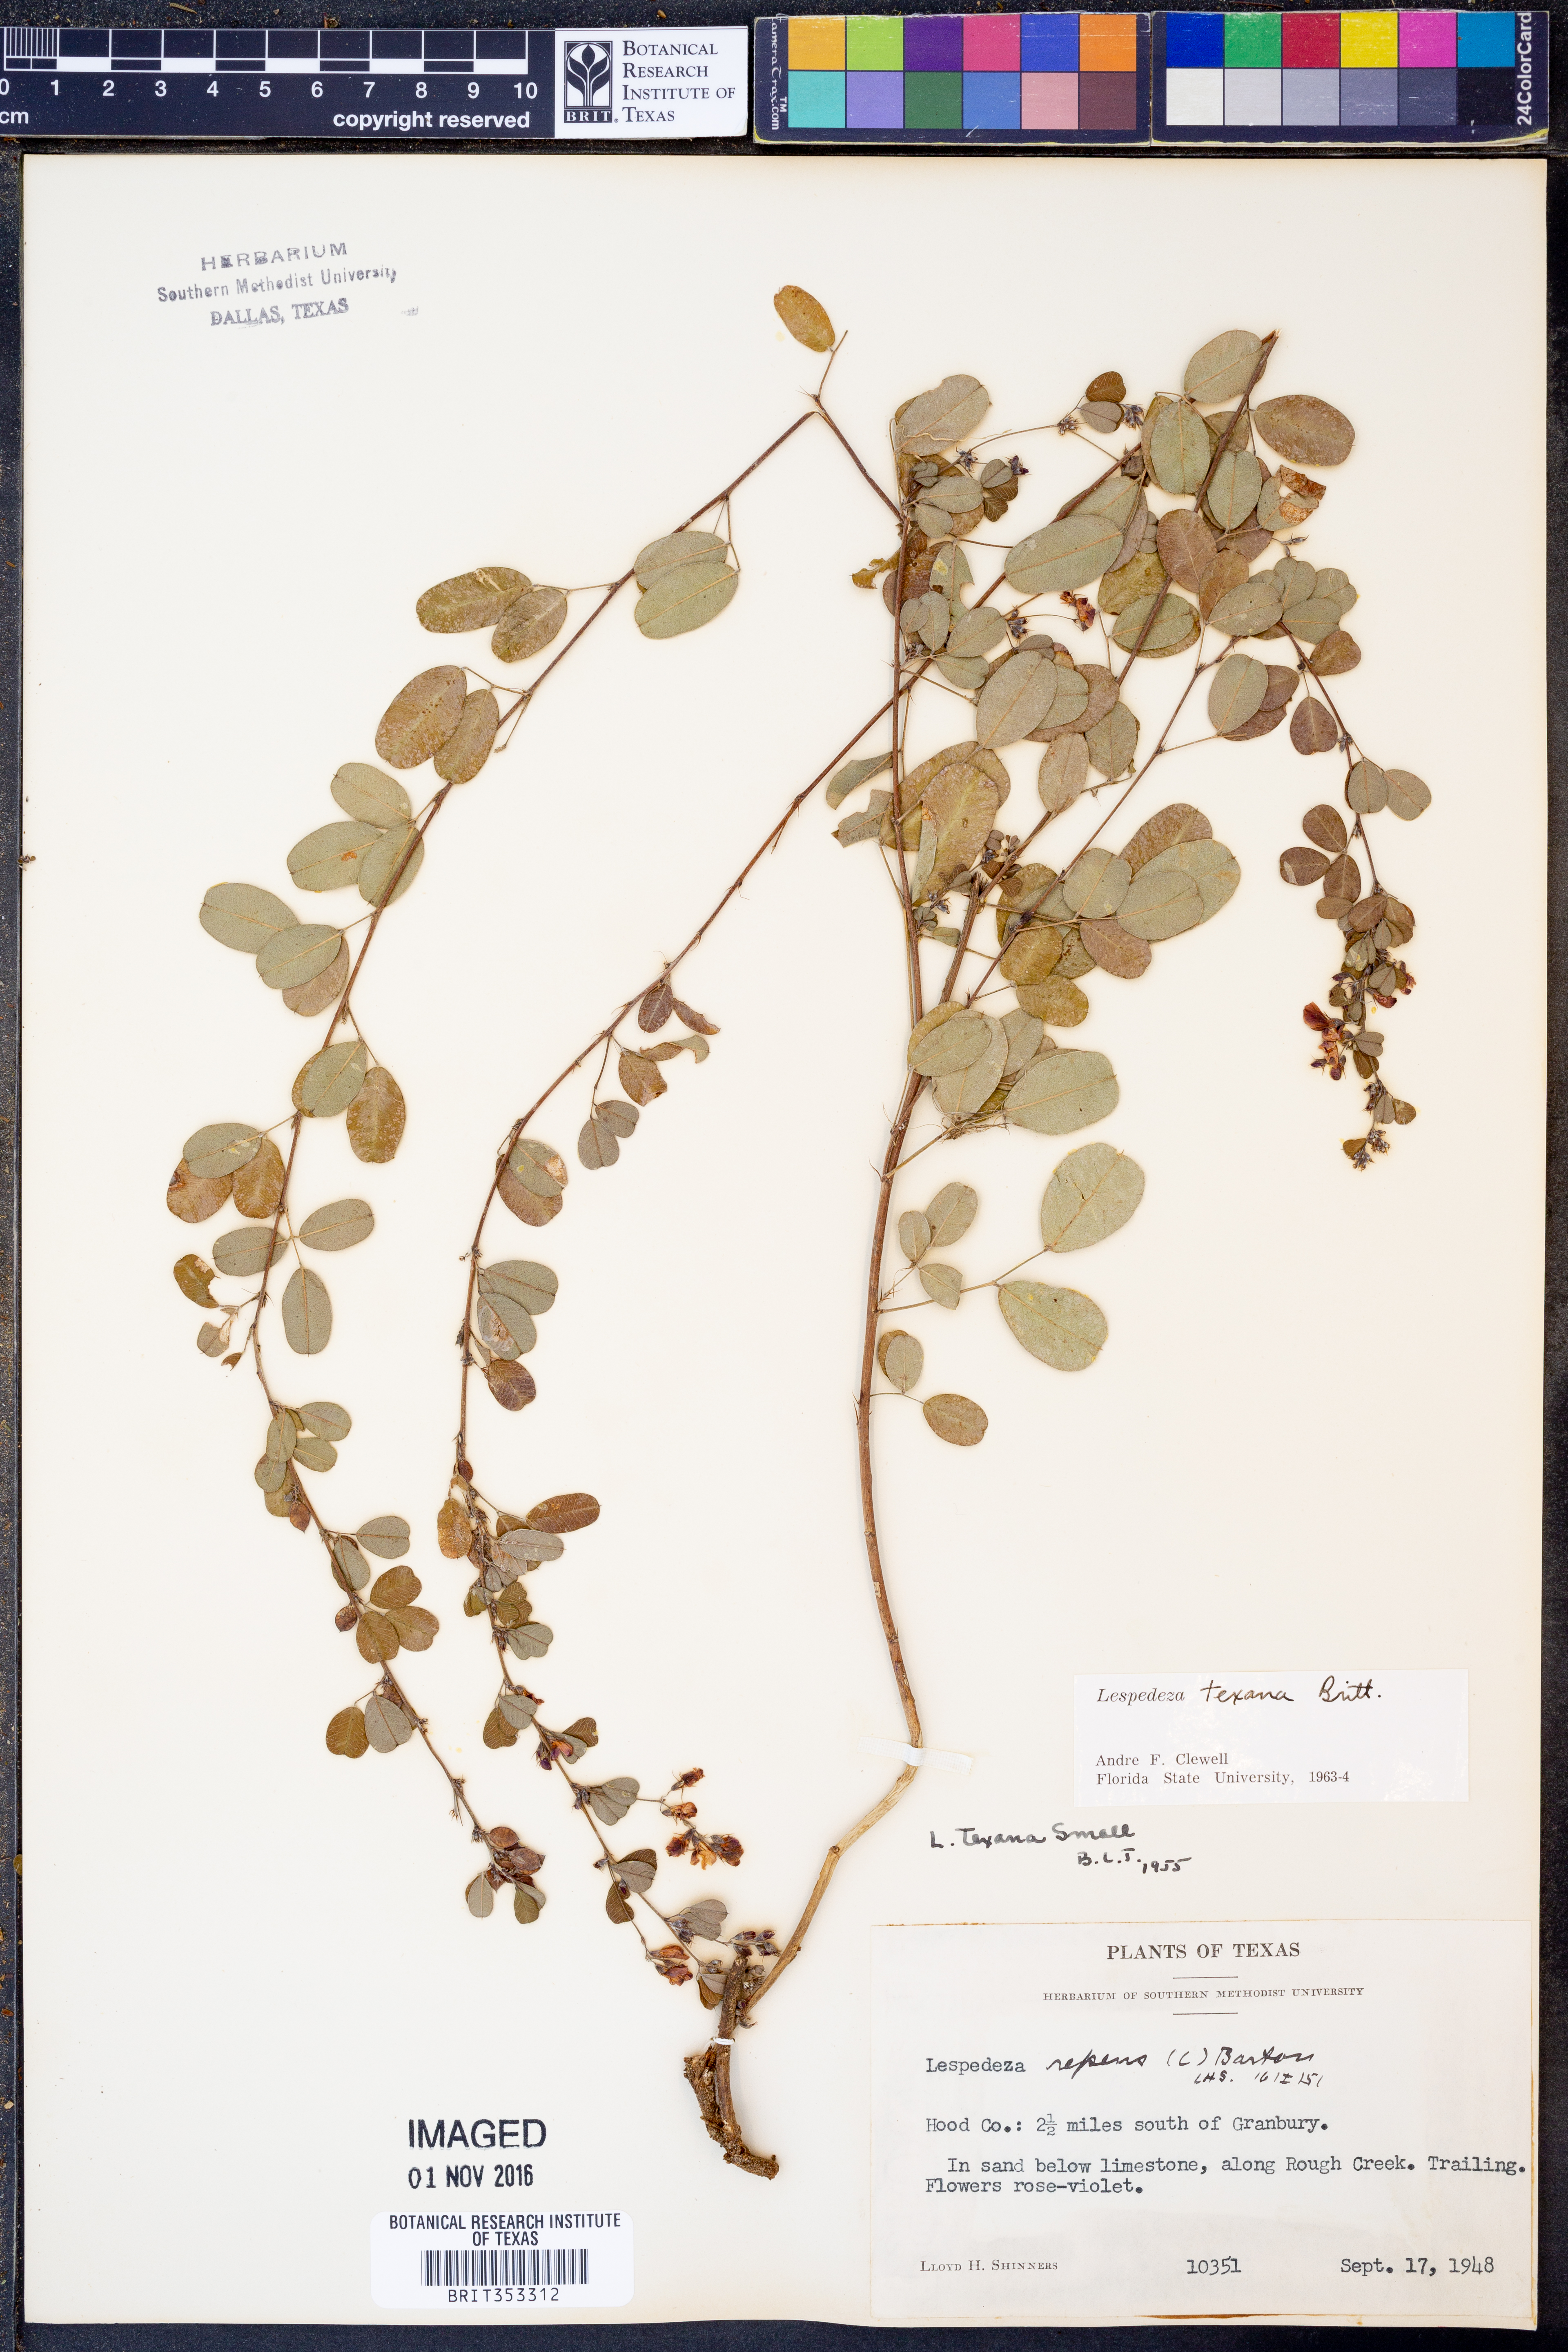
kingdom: Plantae
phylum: Tracheophyta
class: Magnoliopsida
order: Fabales
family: Fabaceae
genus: Lespedeza
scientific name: Lespedeza texana
